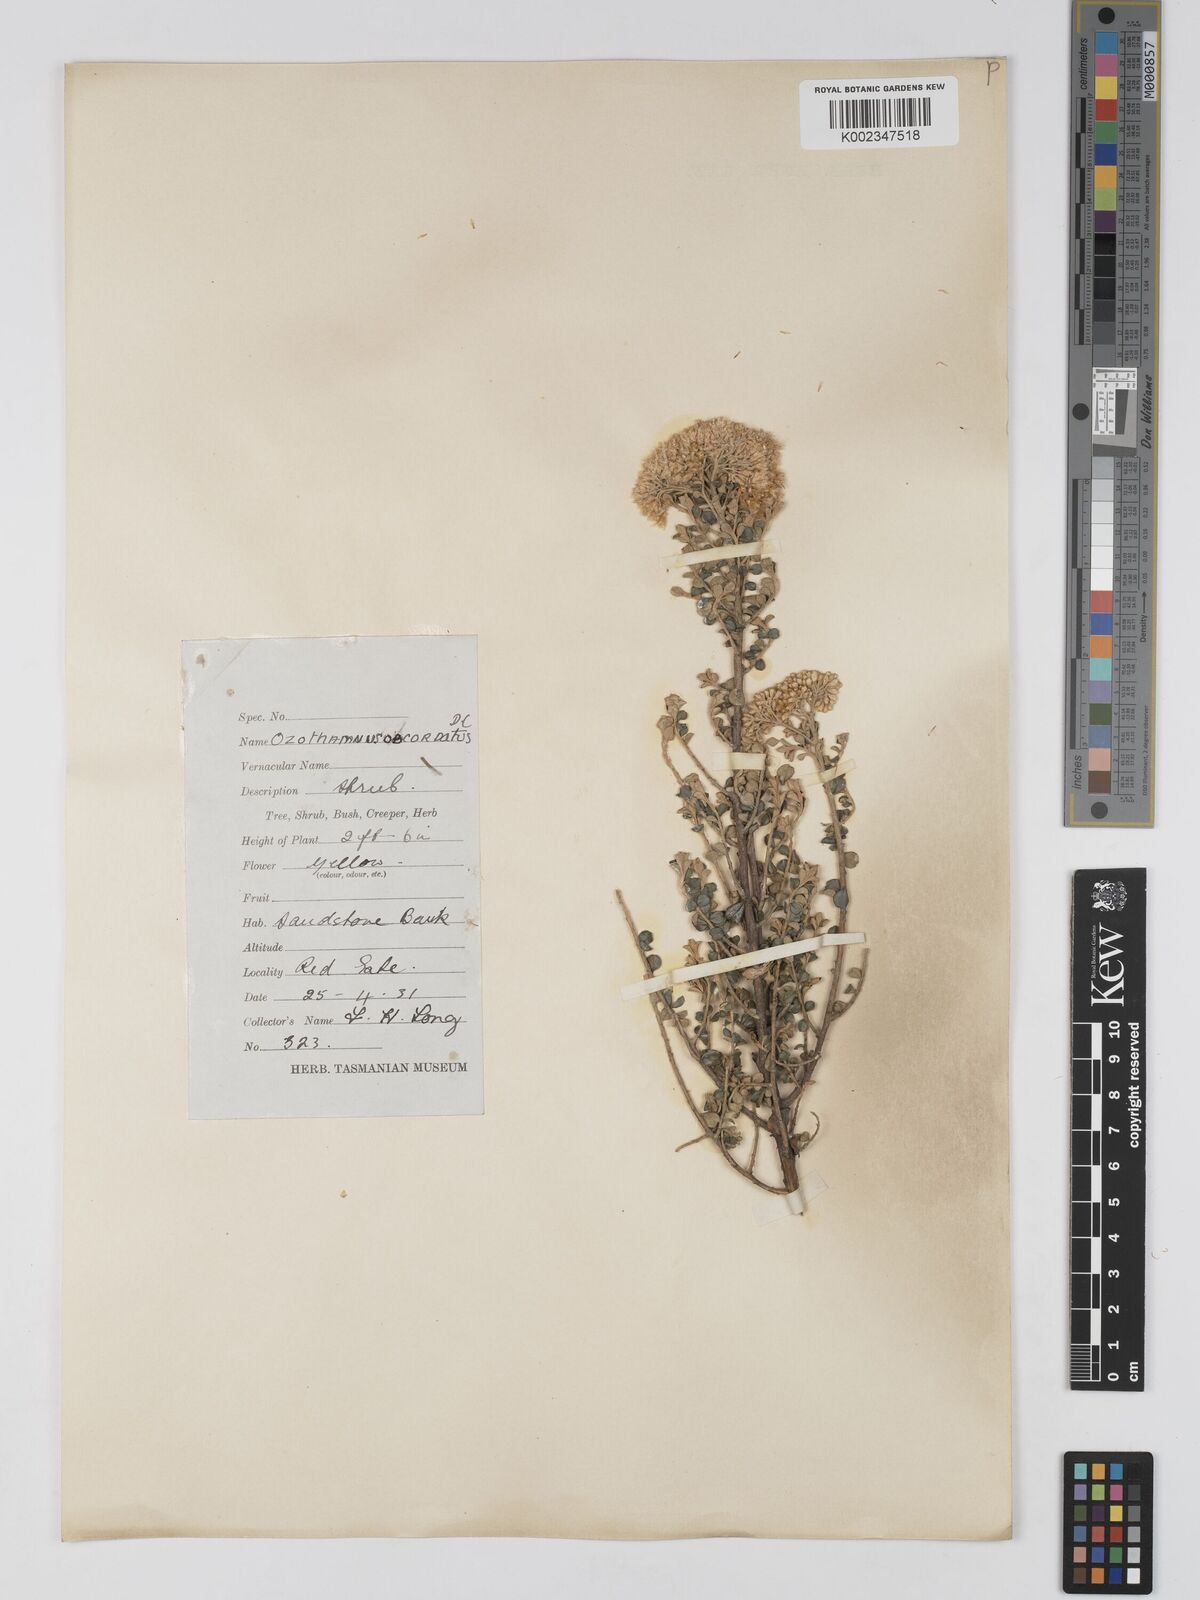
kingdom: Plantae
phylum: Tracheophyta
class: Magnoliopsida
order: Asterales
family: Asteraceae
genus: Ozothamnus
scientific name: Ozothamnus
